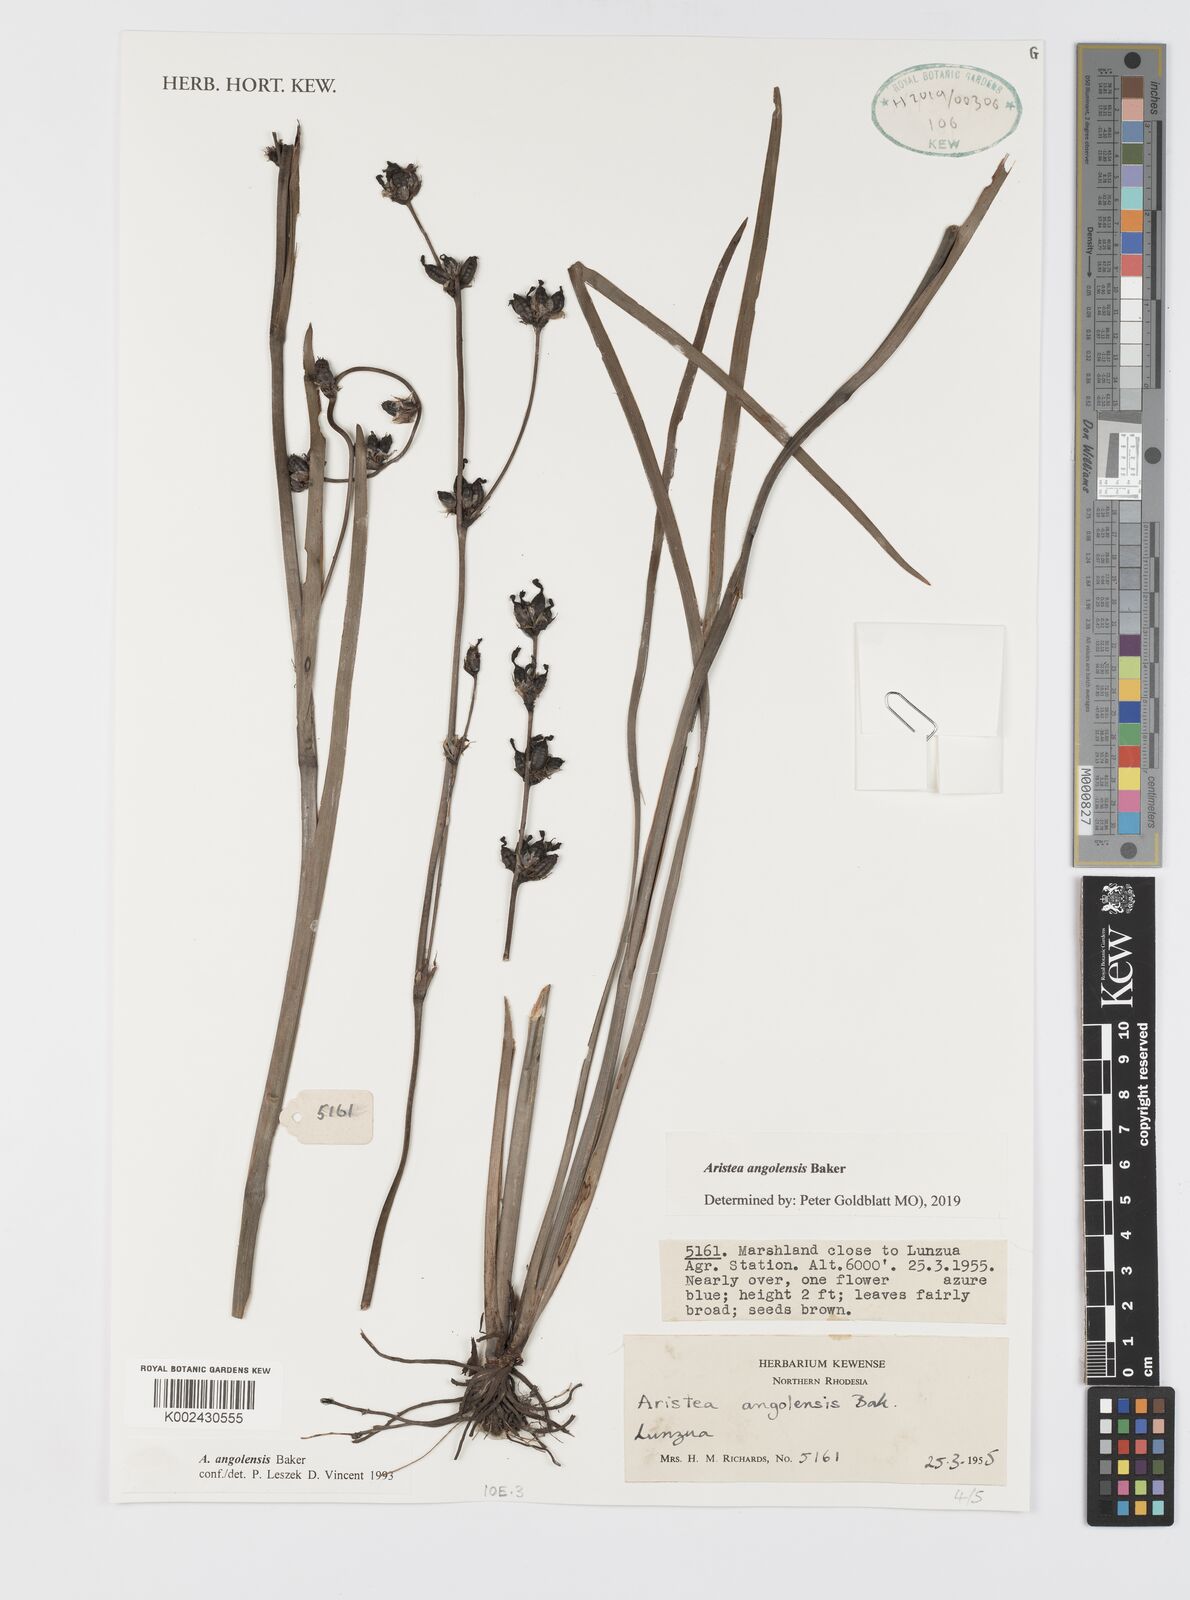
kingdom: Plantae
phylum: Tracheophyta
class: Liliopsida
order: Asparagales
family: Iridaceae
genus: Aristea
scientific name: Aristea angolensis
